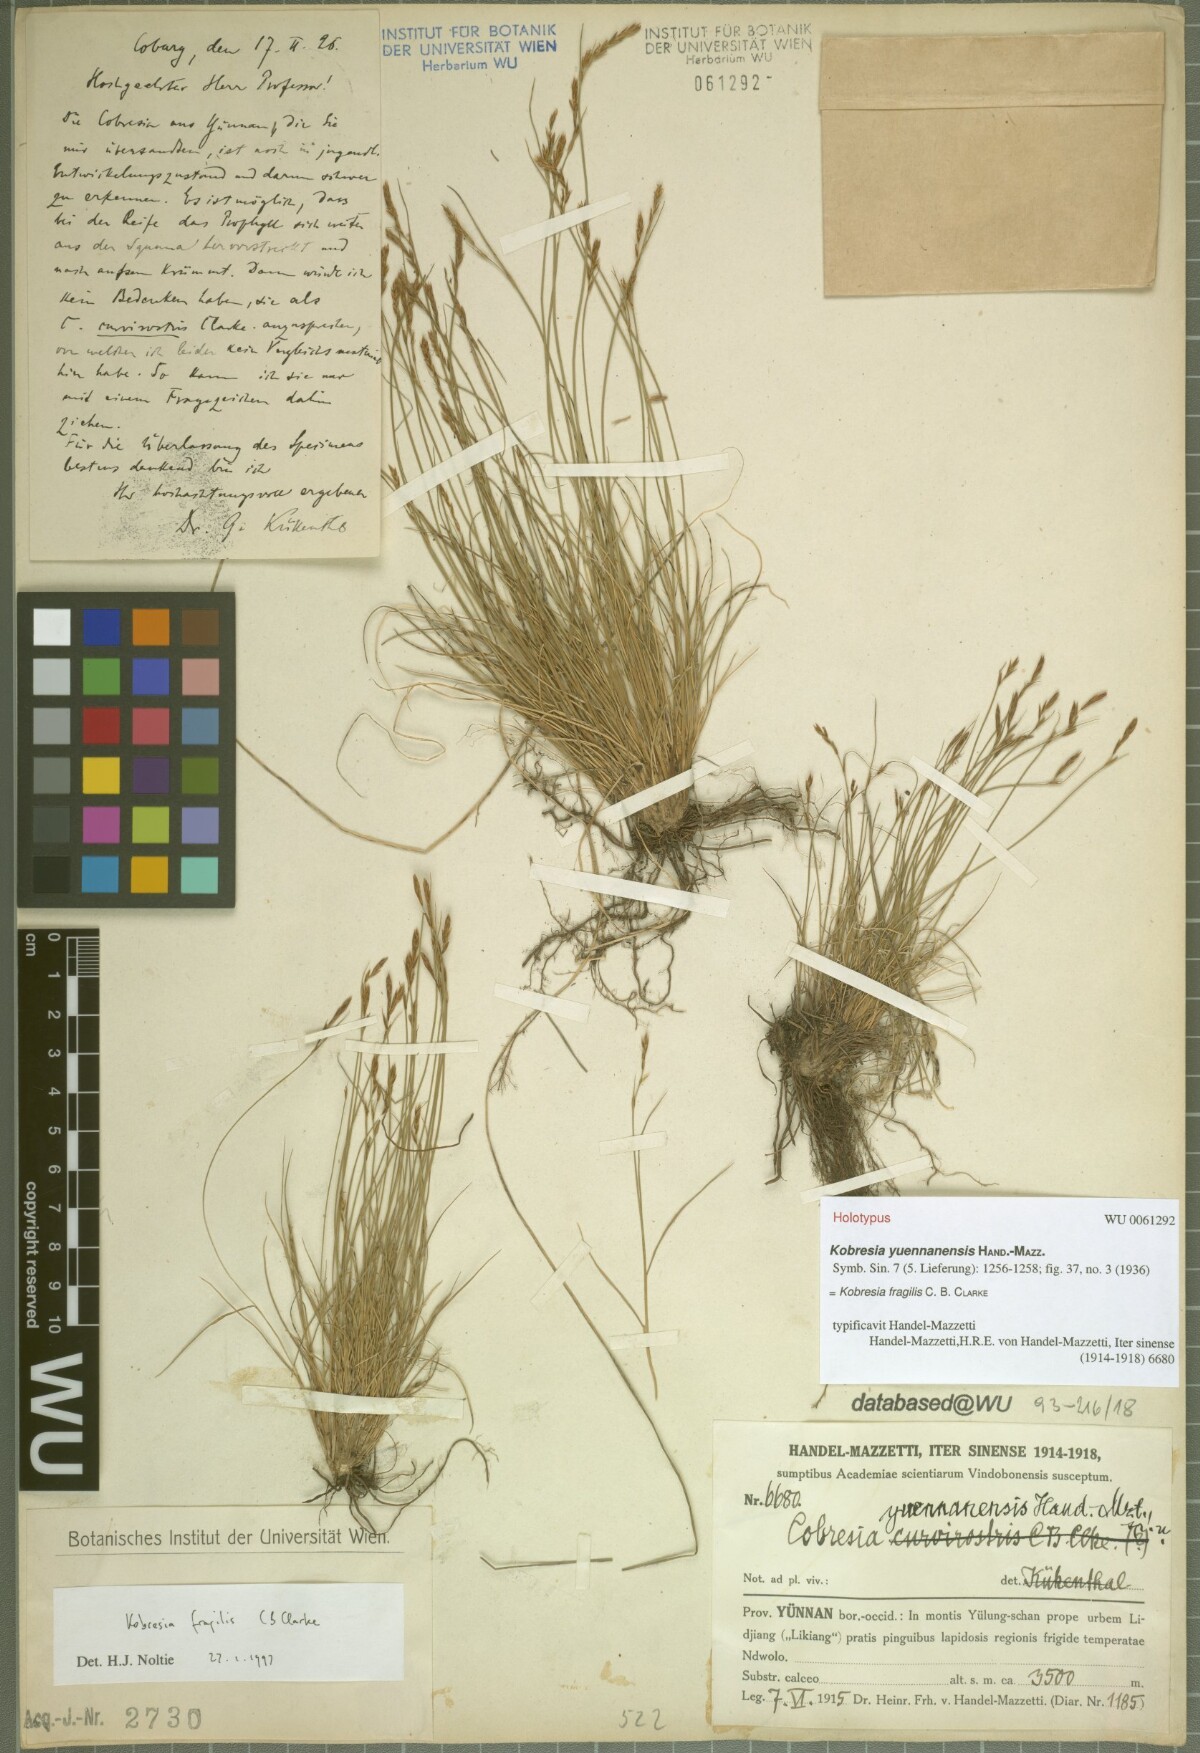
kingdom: Plantae
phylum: Tracheophyta
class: Liliopsida
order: Poales
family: Cyperaceae
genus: Carex
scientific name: Carex bonatiana
